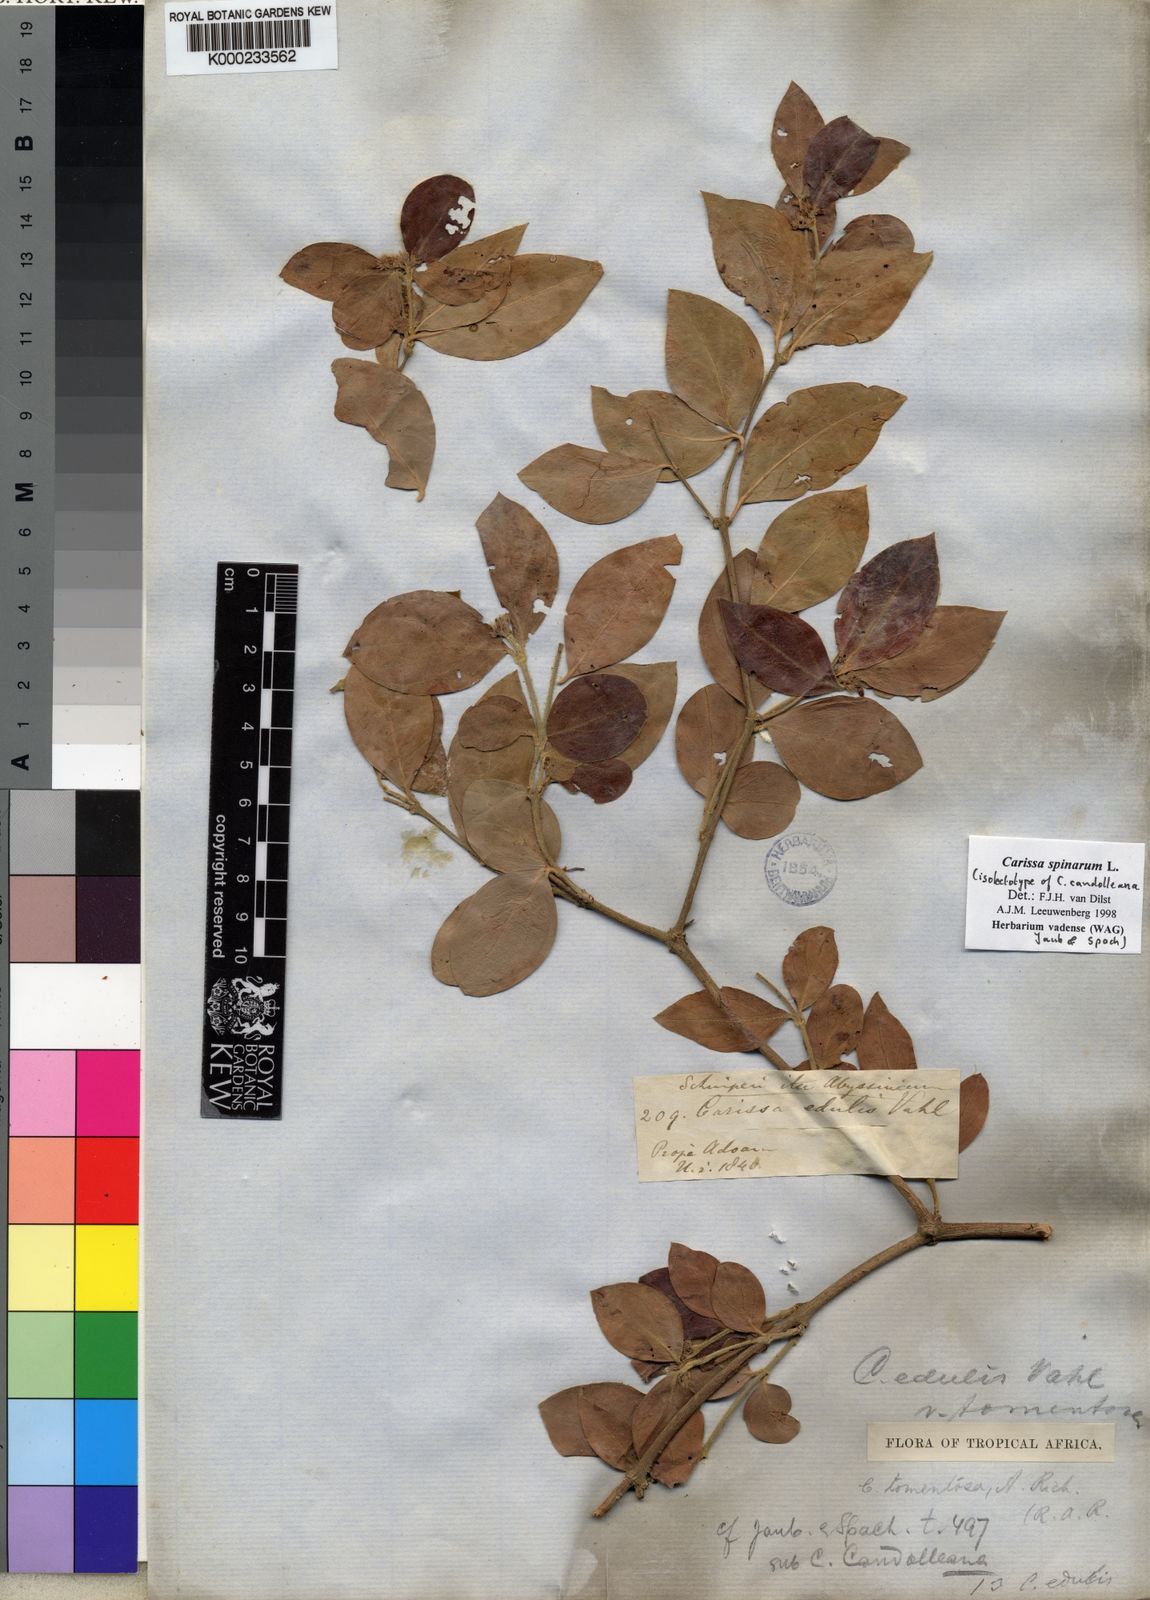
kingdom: Plantae
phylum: Tracheophyta
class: Magnoliopsida
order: Gentianales
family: Apocynaceae
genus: Carissa
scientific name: Carissa spinarum
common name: Egyptian carissa
